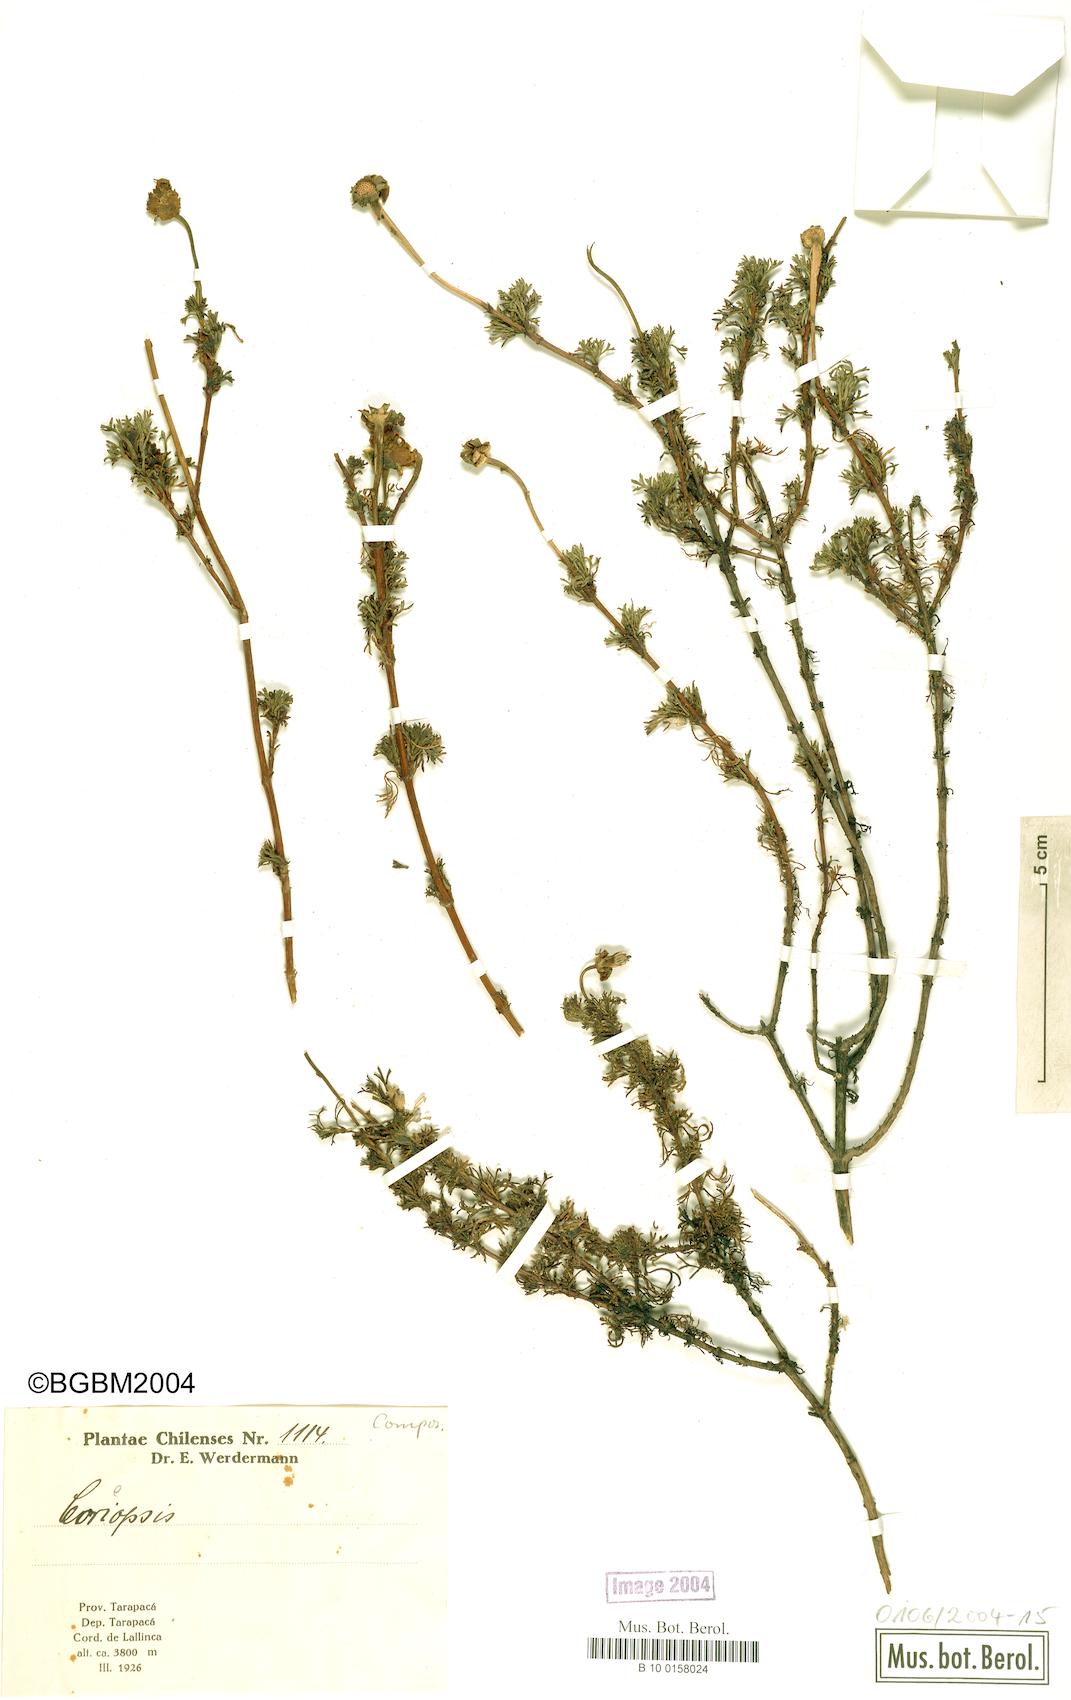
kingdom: Plantae
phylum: Tracheophyta
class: Magnoliopsida
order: Asterales
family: Asteraceae
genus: Coreopsis
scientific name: Coreopsis
